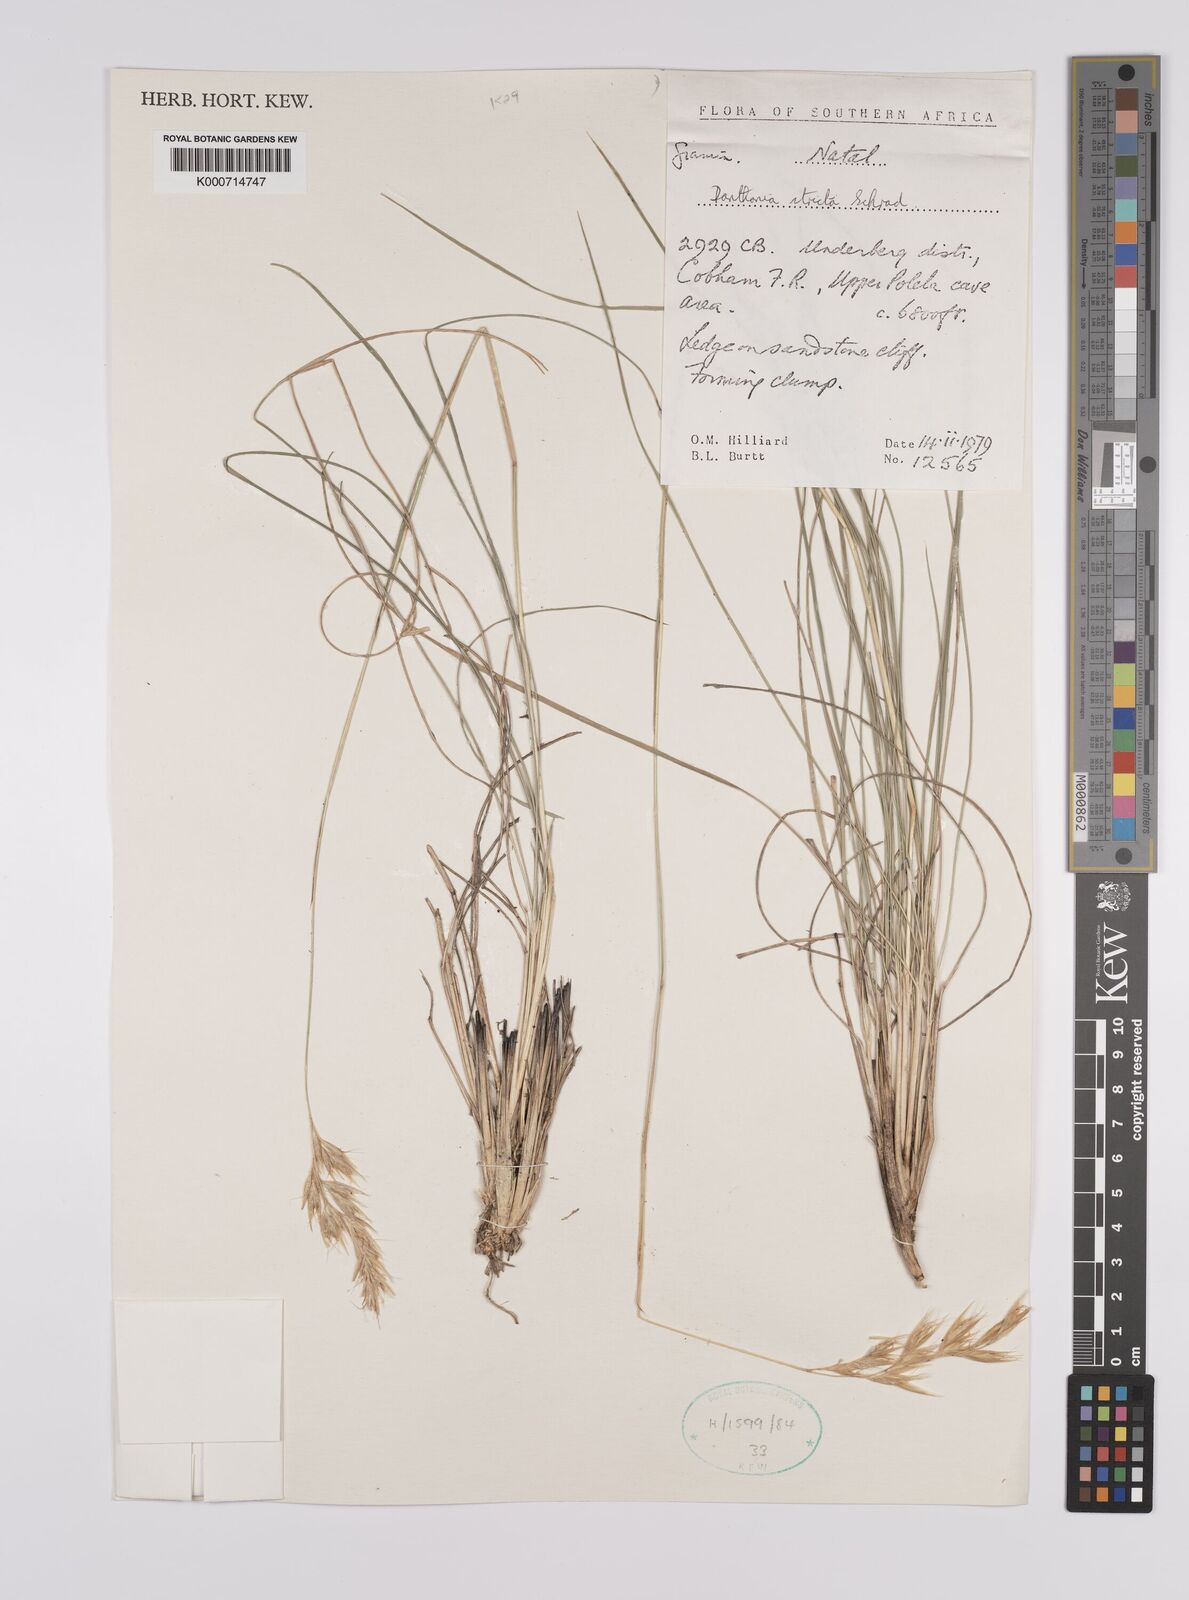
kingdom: Plantae
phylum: Tracheophyta
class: Liliopsida
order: Poales
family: Poaceae
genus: Rytidosperma
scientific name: Rytidosperma
